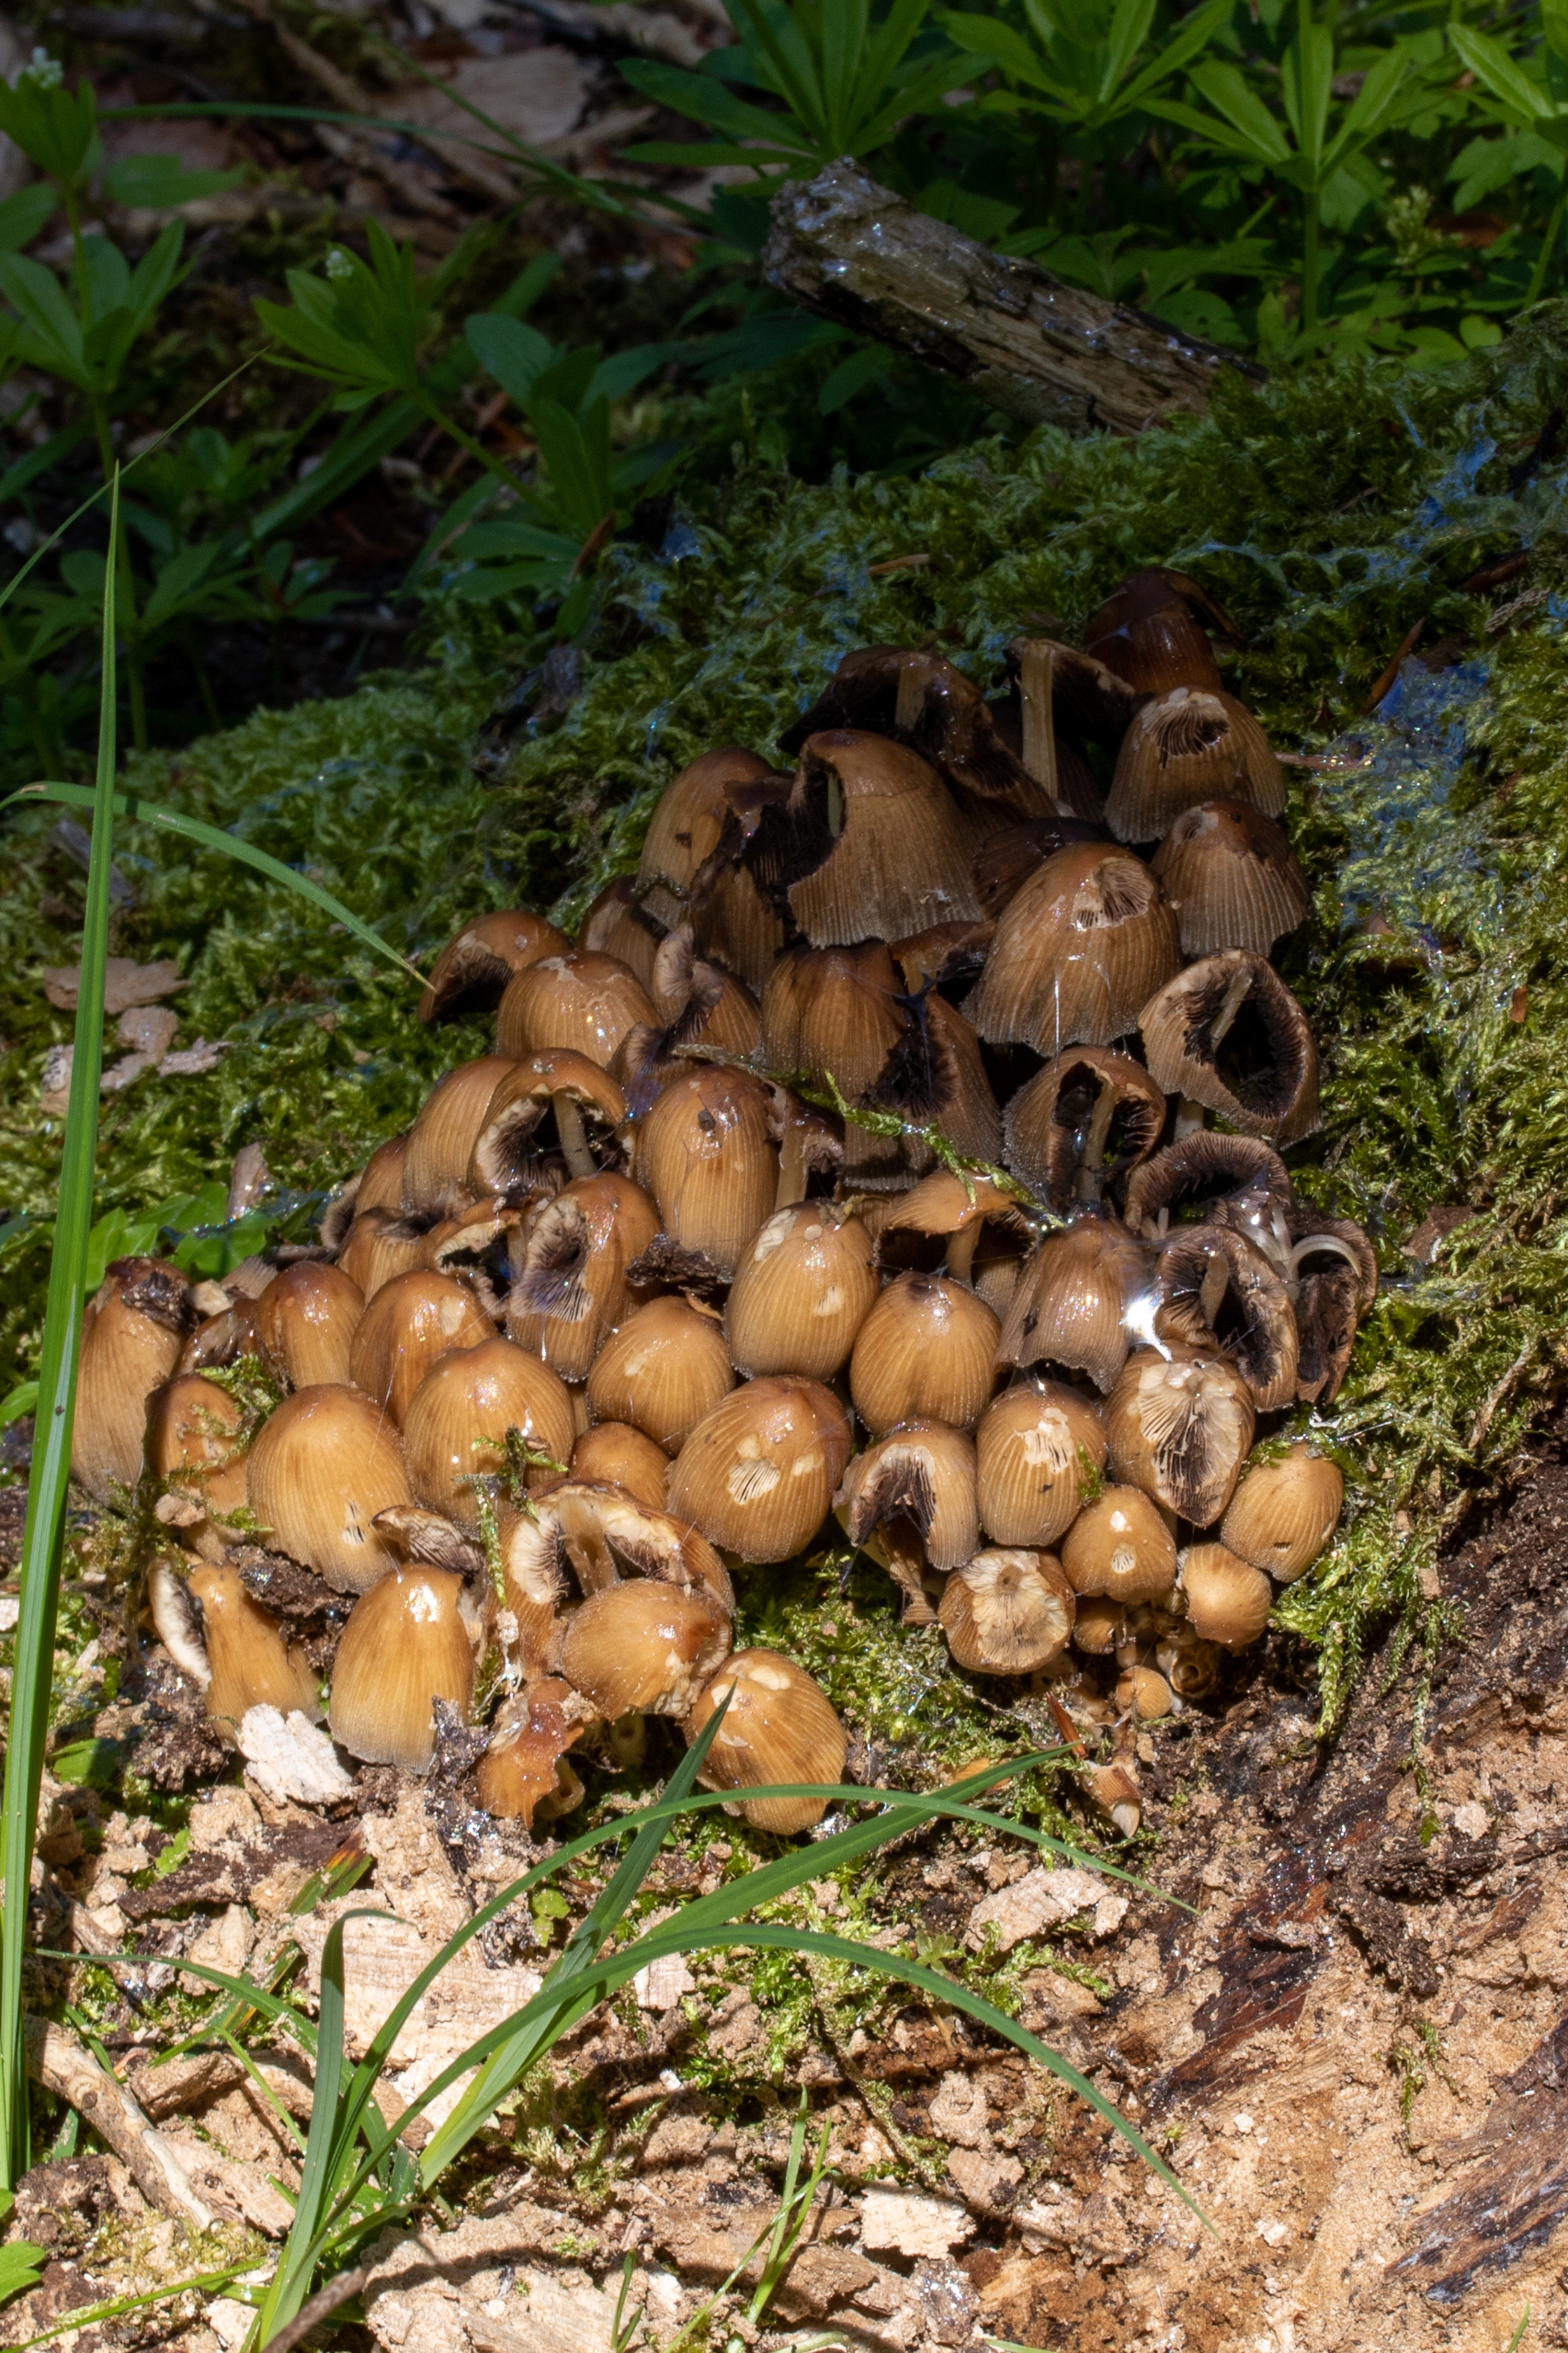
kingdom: Fungi
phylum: Basidiomycota
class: Agaricomycetes
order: Agaricales
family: Psathyrellaceae
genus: Coprinellus
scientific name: Coprinellus
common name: Blækhat
